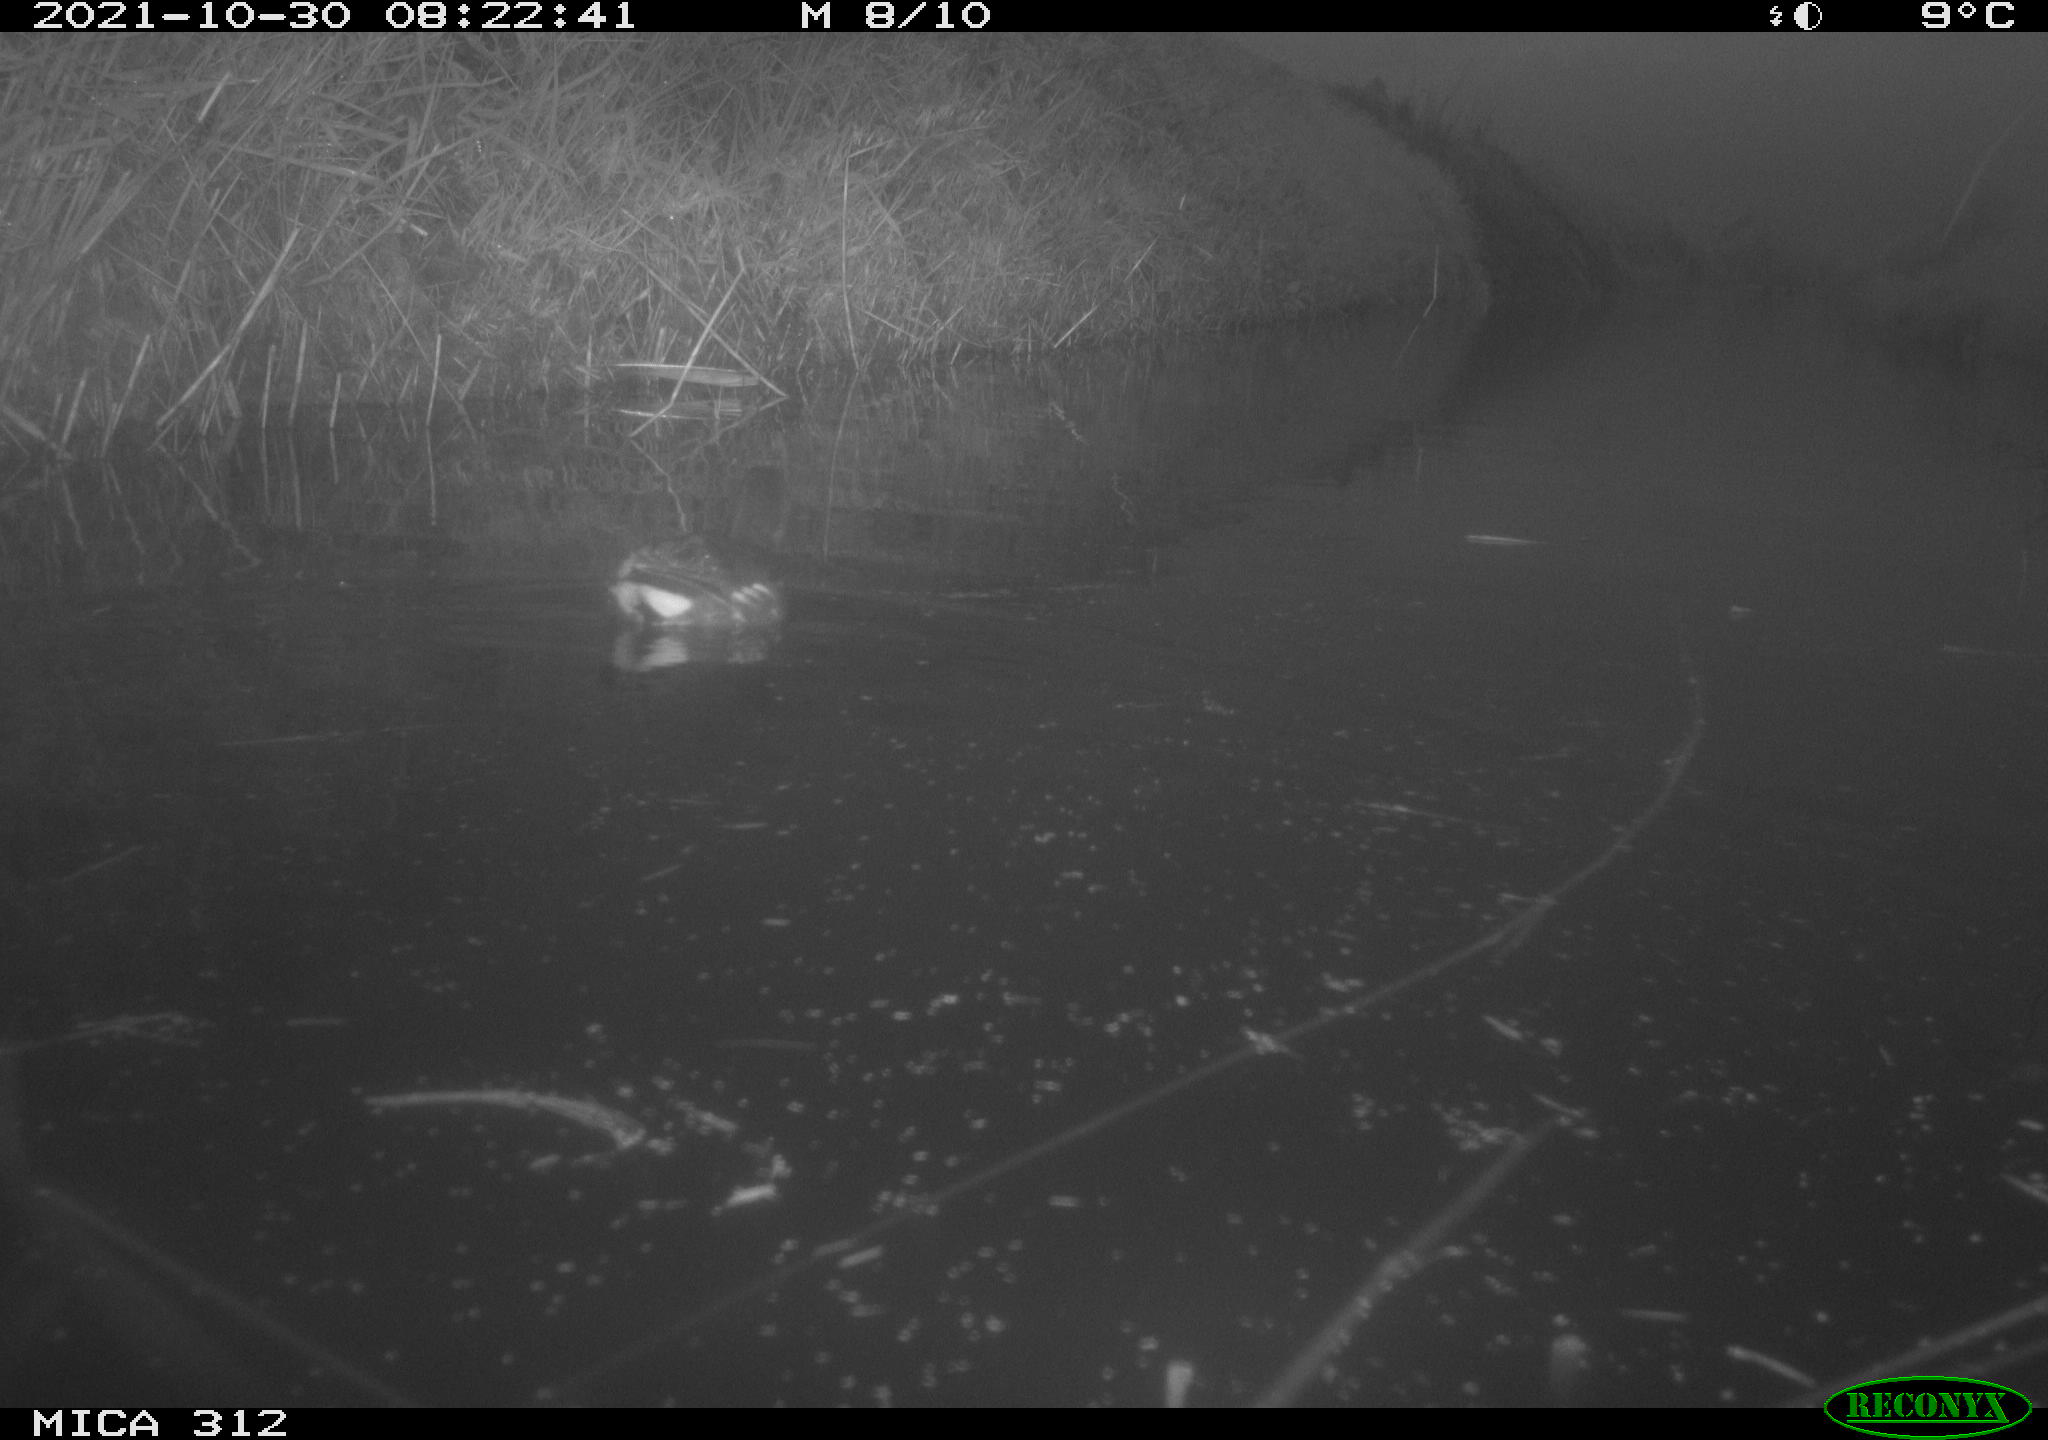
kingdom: Animalia
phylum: Chordata
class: Aves
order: Gruiformes
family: Rallidae
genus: Gallinula
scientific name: Gallinula chloropus
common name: Common moorhen
